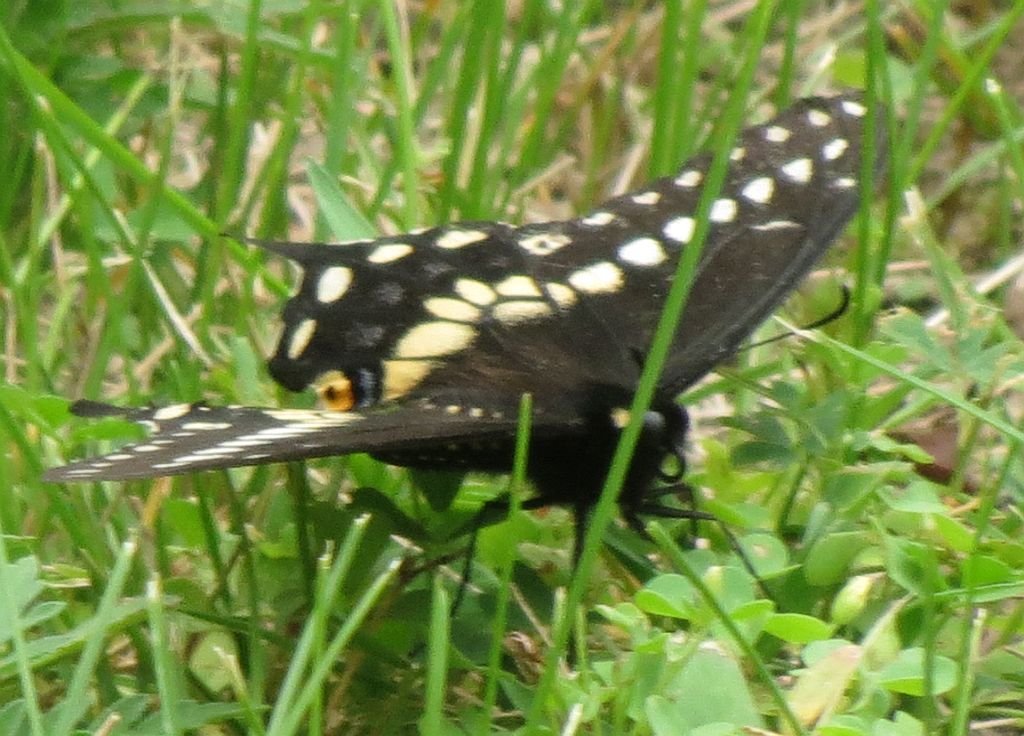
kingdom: Animalia
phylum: Arthropoda
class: Insecta
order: Lepidoptera
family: Papilionidae
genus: Papilio
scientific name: Papilio polyxenes
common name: Black Swallowtail
